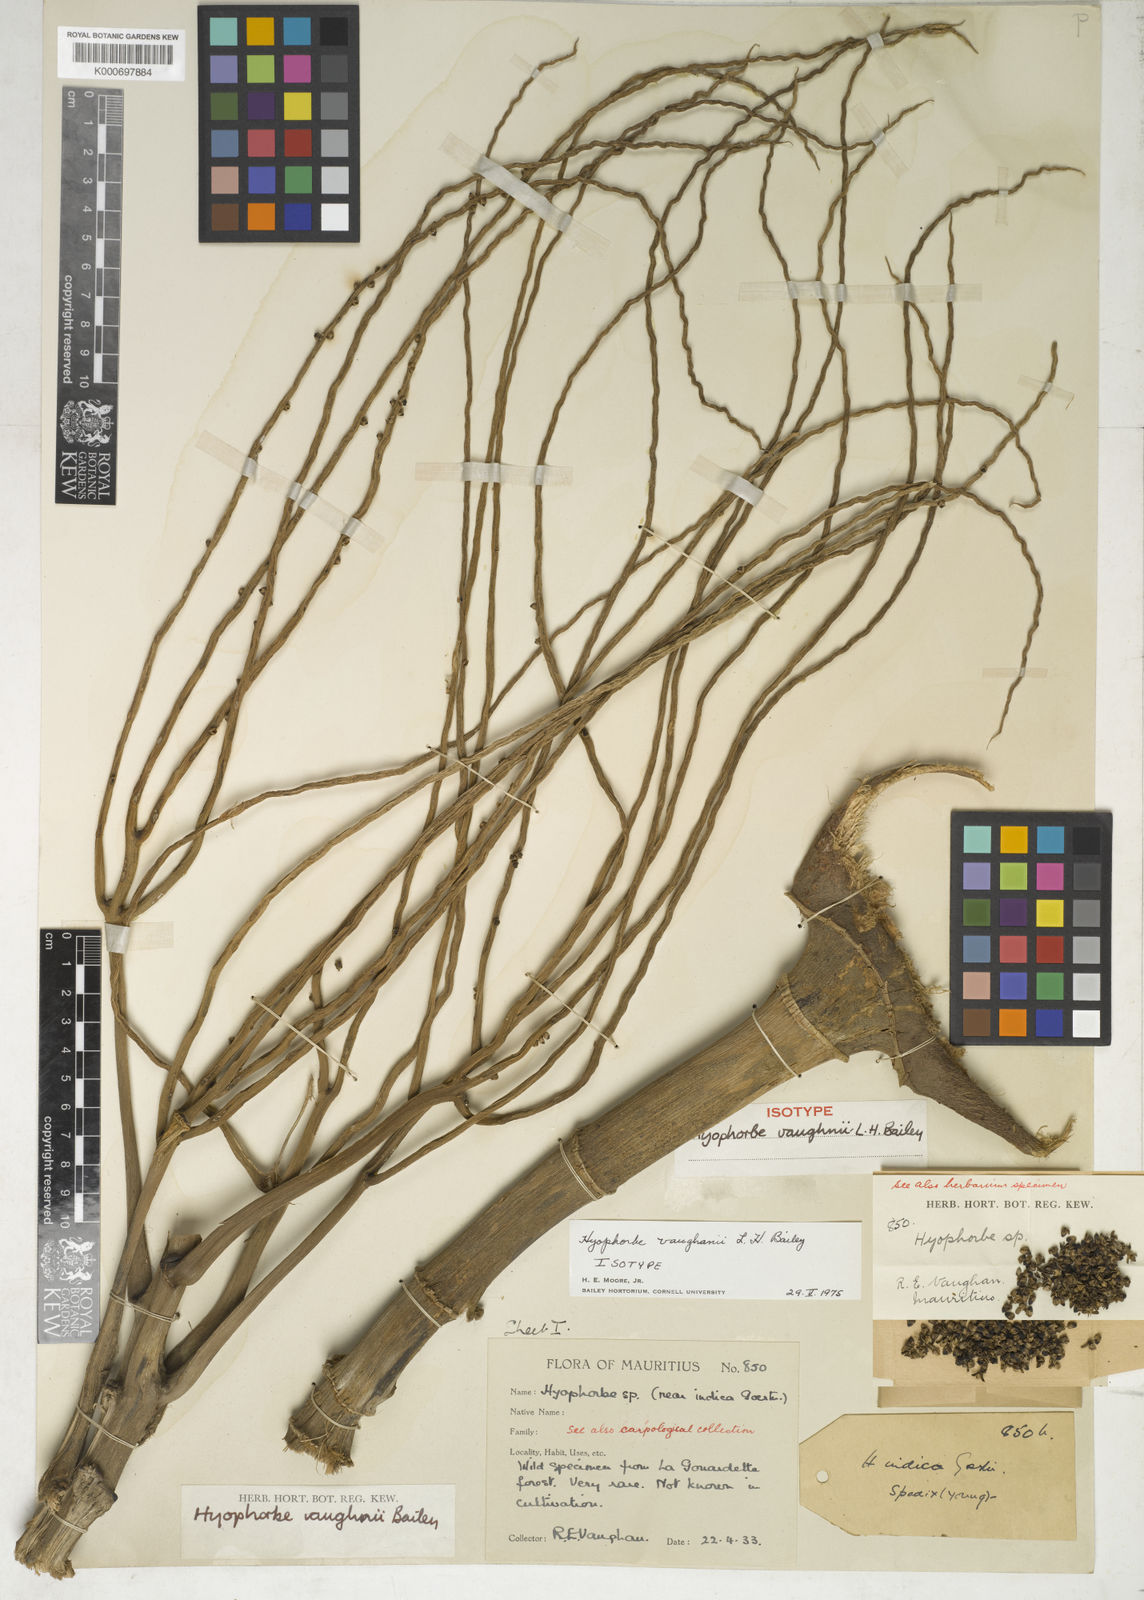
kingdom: Plantae
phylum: Tracheophyta
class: Liliopsida
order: Arecales
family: Arecaceae
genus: Hyophorbe
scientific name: Hyophorbe vaughanii
